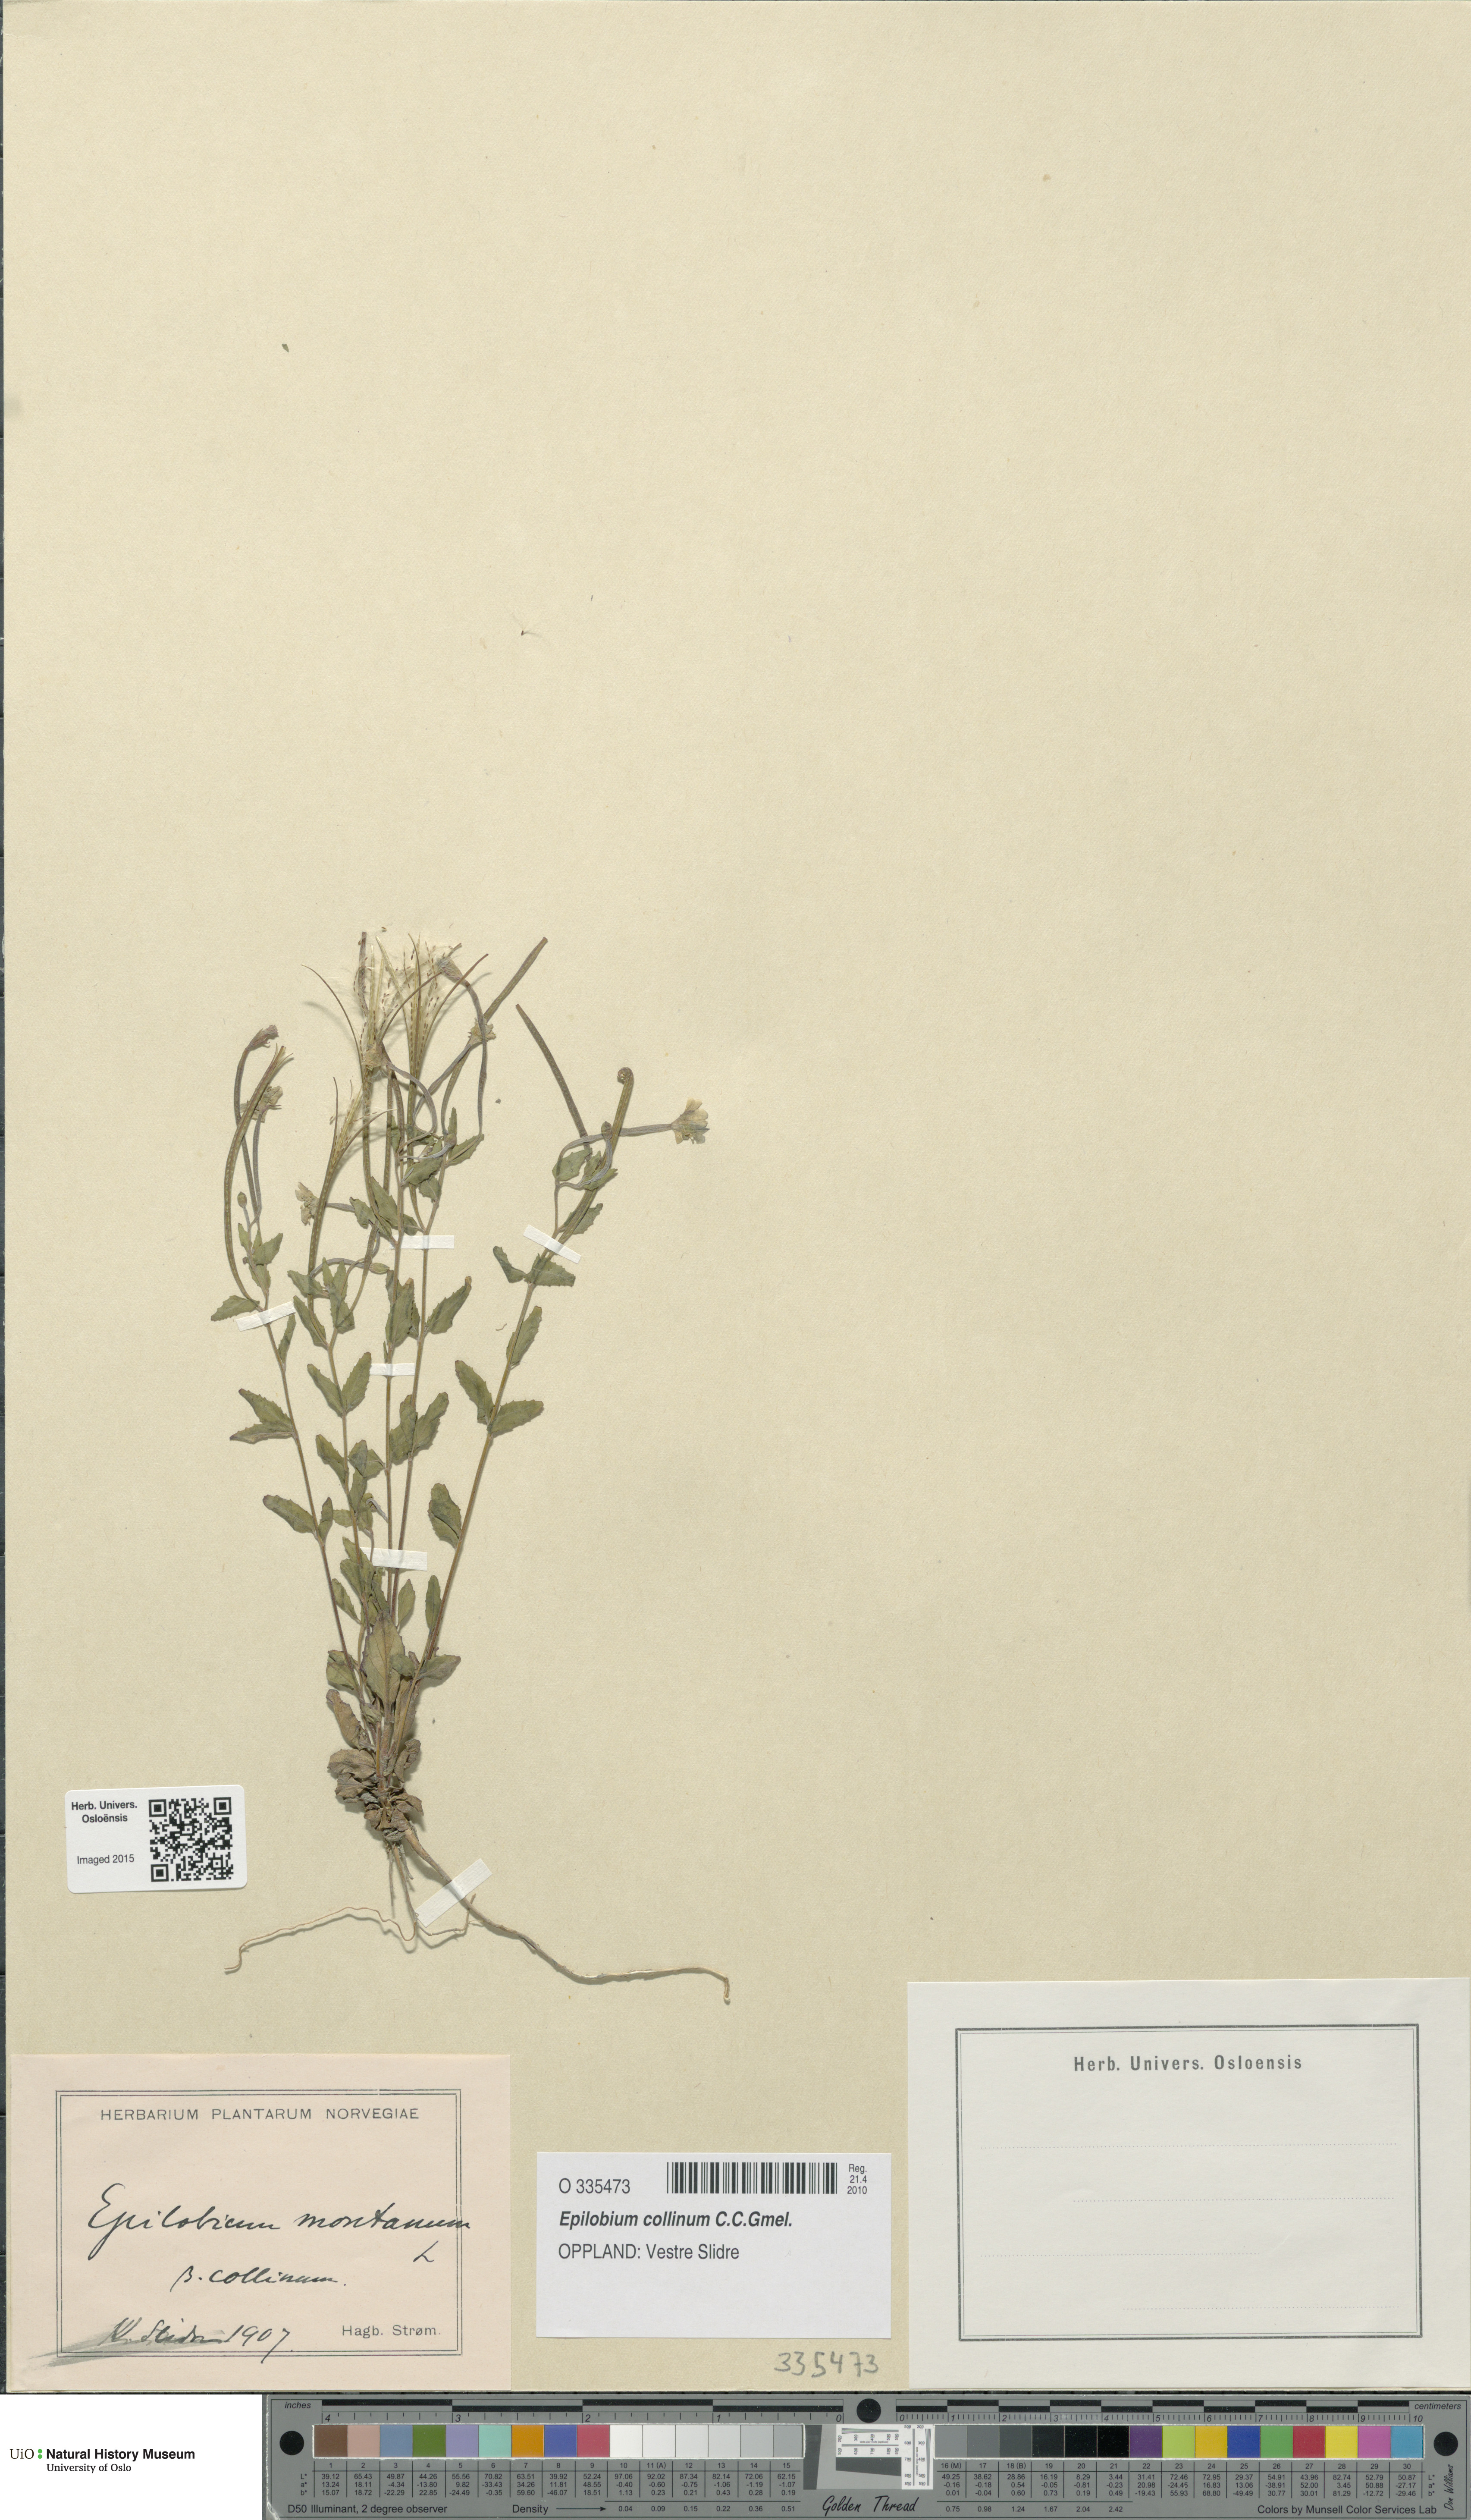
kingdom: Plantae
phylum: Tracheophyta
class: Magnoliopsida
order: Myrtales
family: Onagraceae
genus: Epilobium
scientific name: Epilobium collinum
